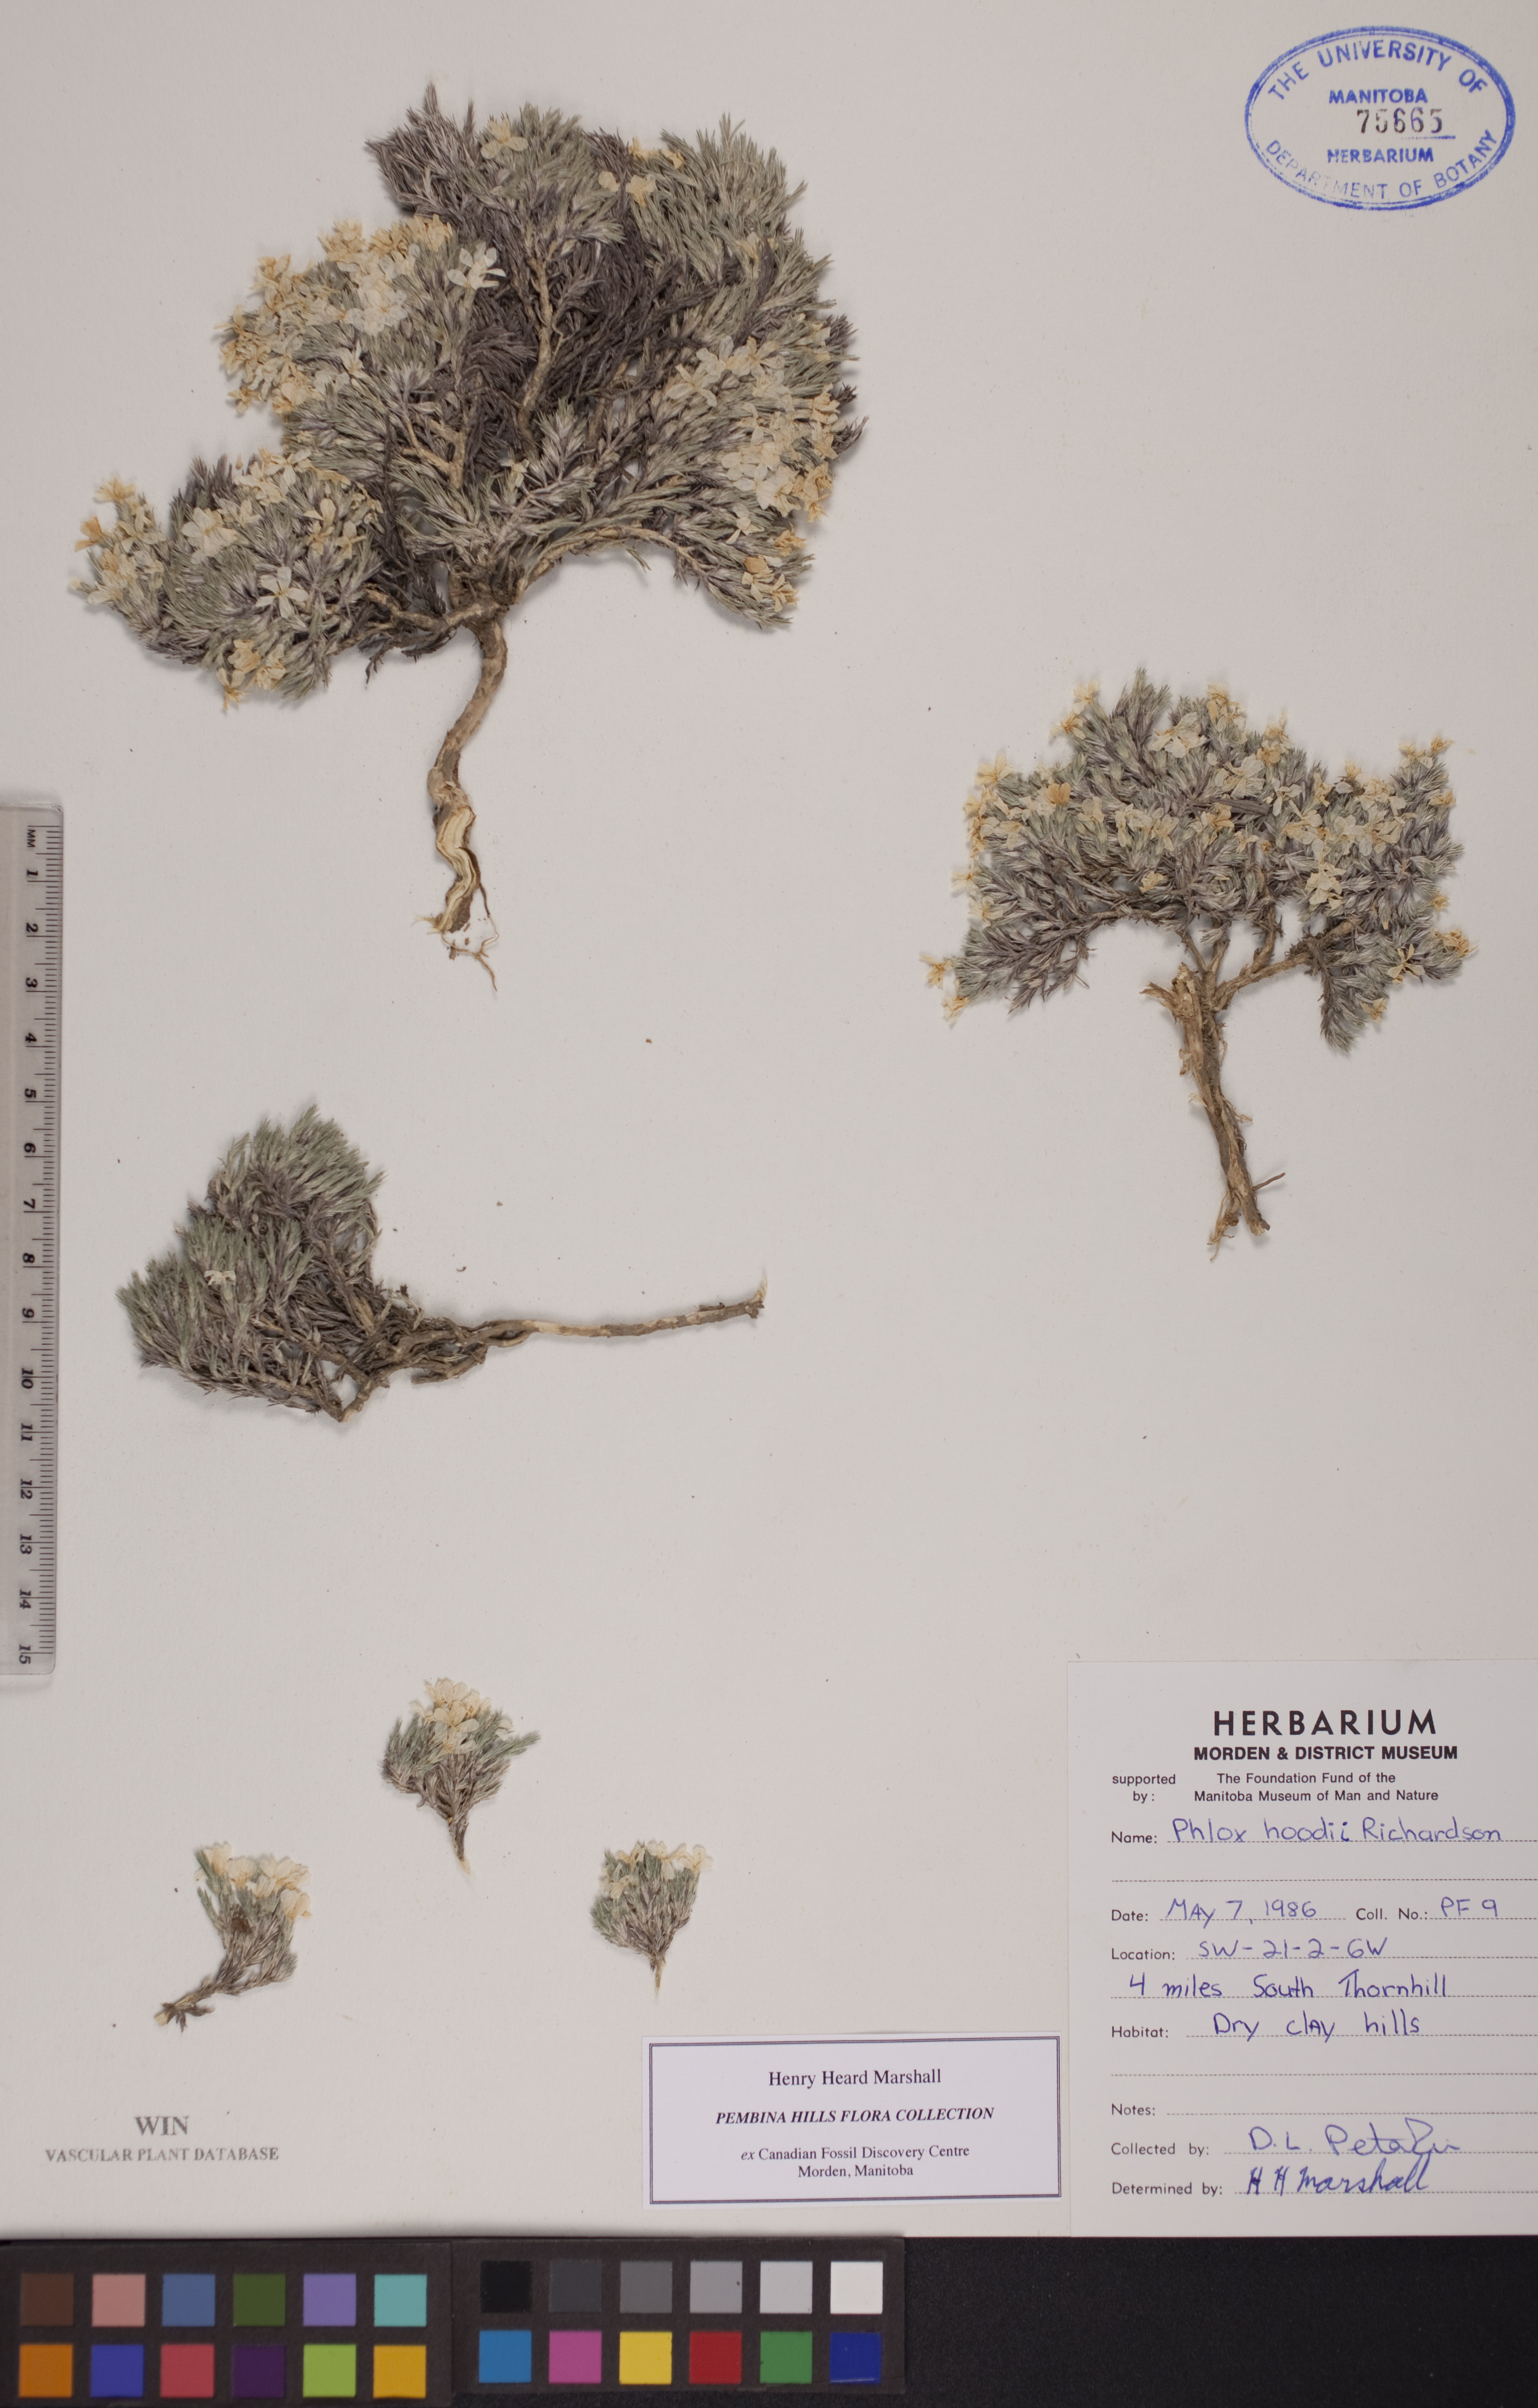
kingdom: Plantae
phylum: Tracheophyta
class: Magnoliopsida
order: Ericales
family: Polemoniaceae
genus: Phlox
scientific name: Phlox hoodii
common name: Moss phlox
